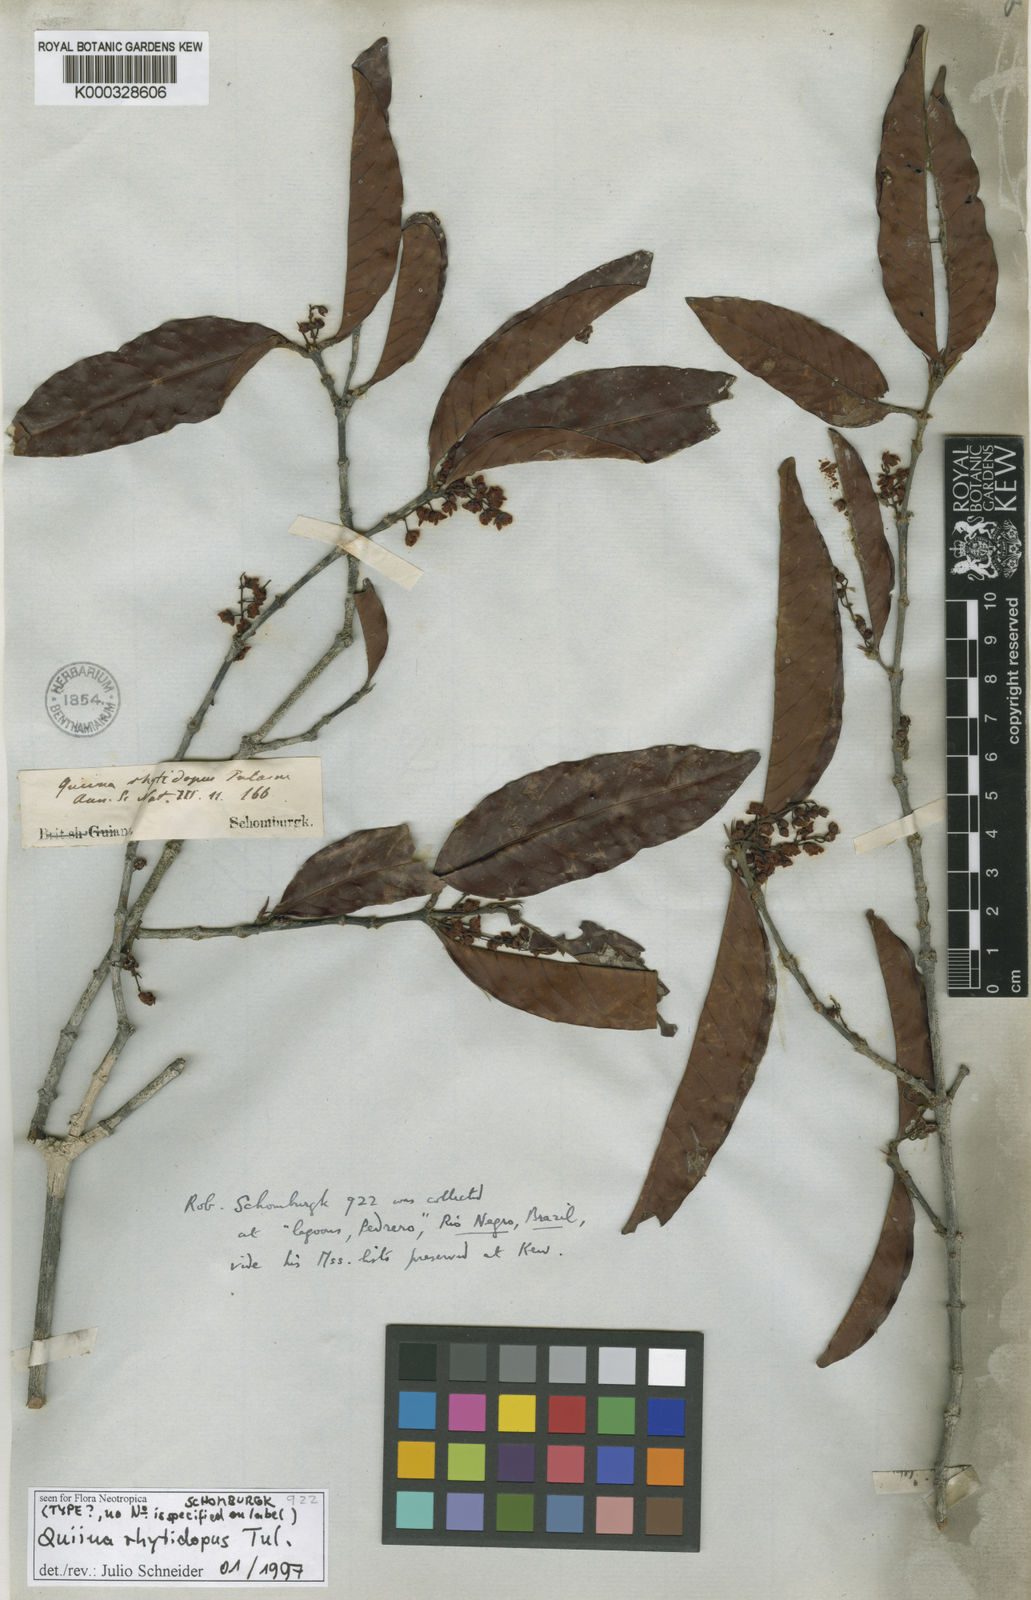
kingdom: Plantae
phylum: Tracheophyta
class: Magnoliopsida
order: Malpighiales
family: Quiinaceae
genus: Quiina
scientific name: Quiina rhytidopus
